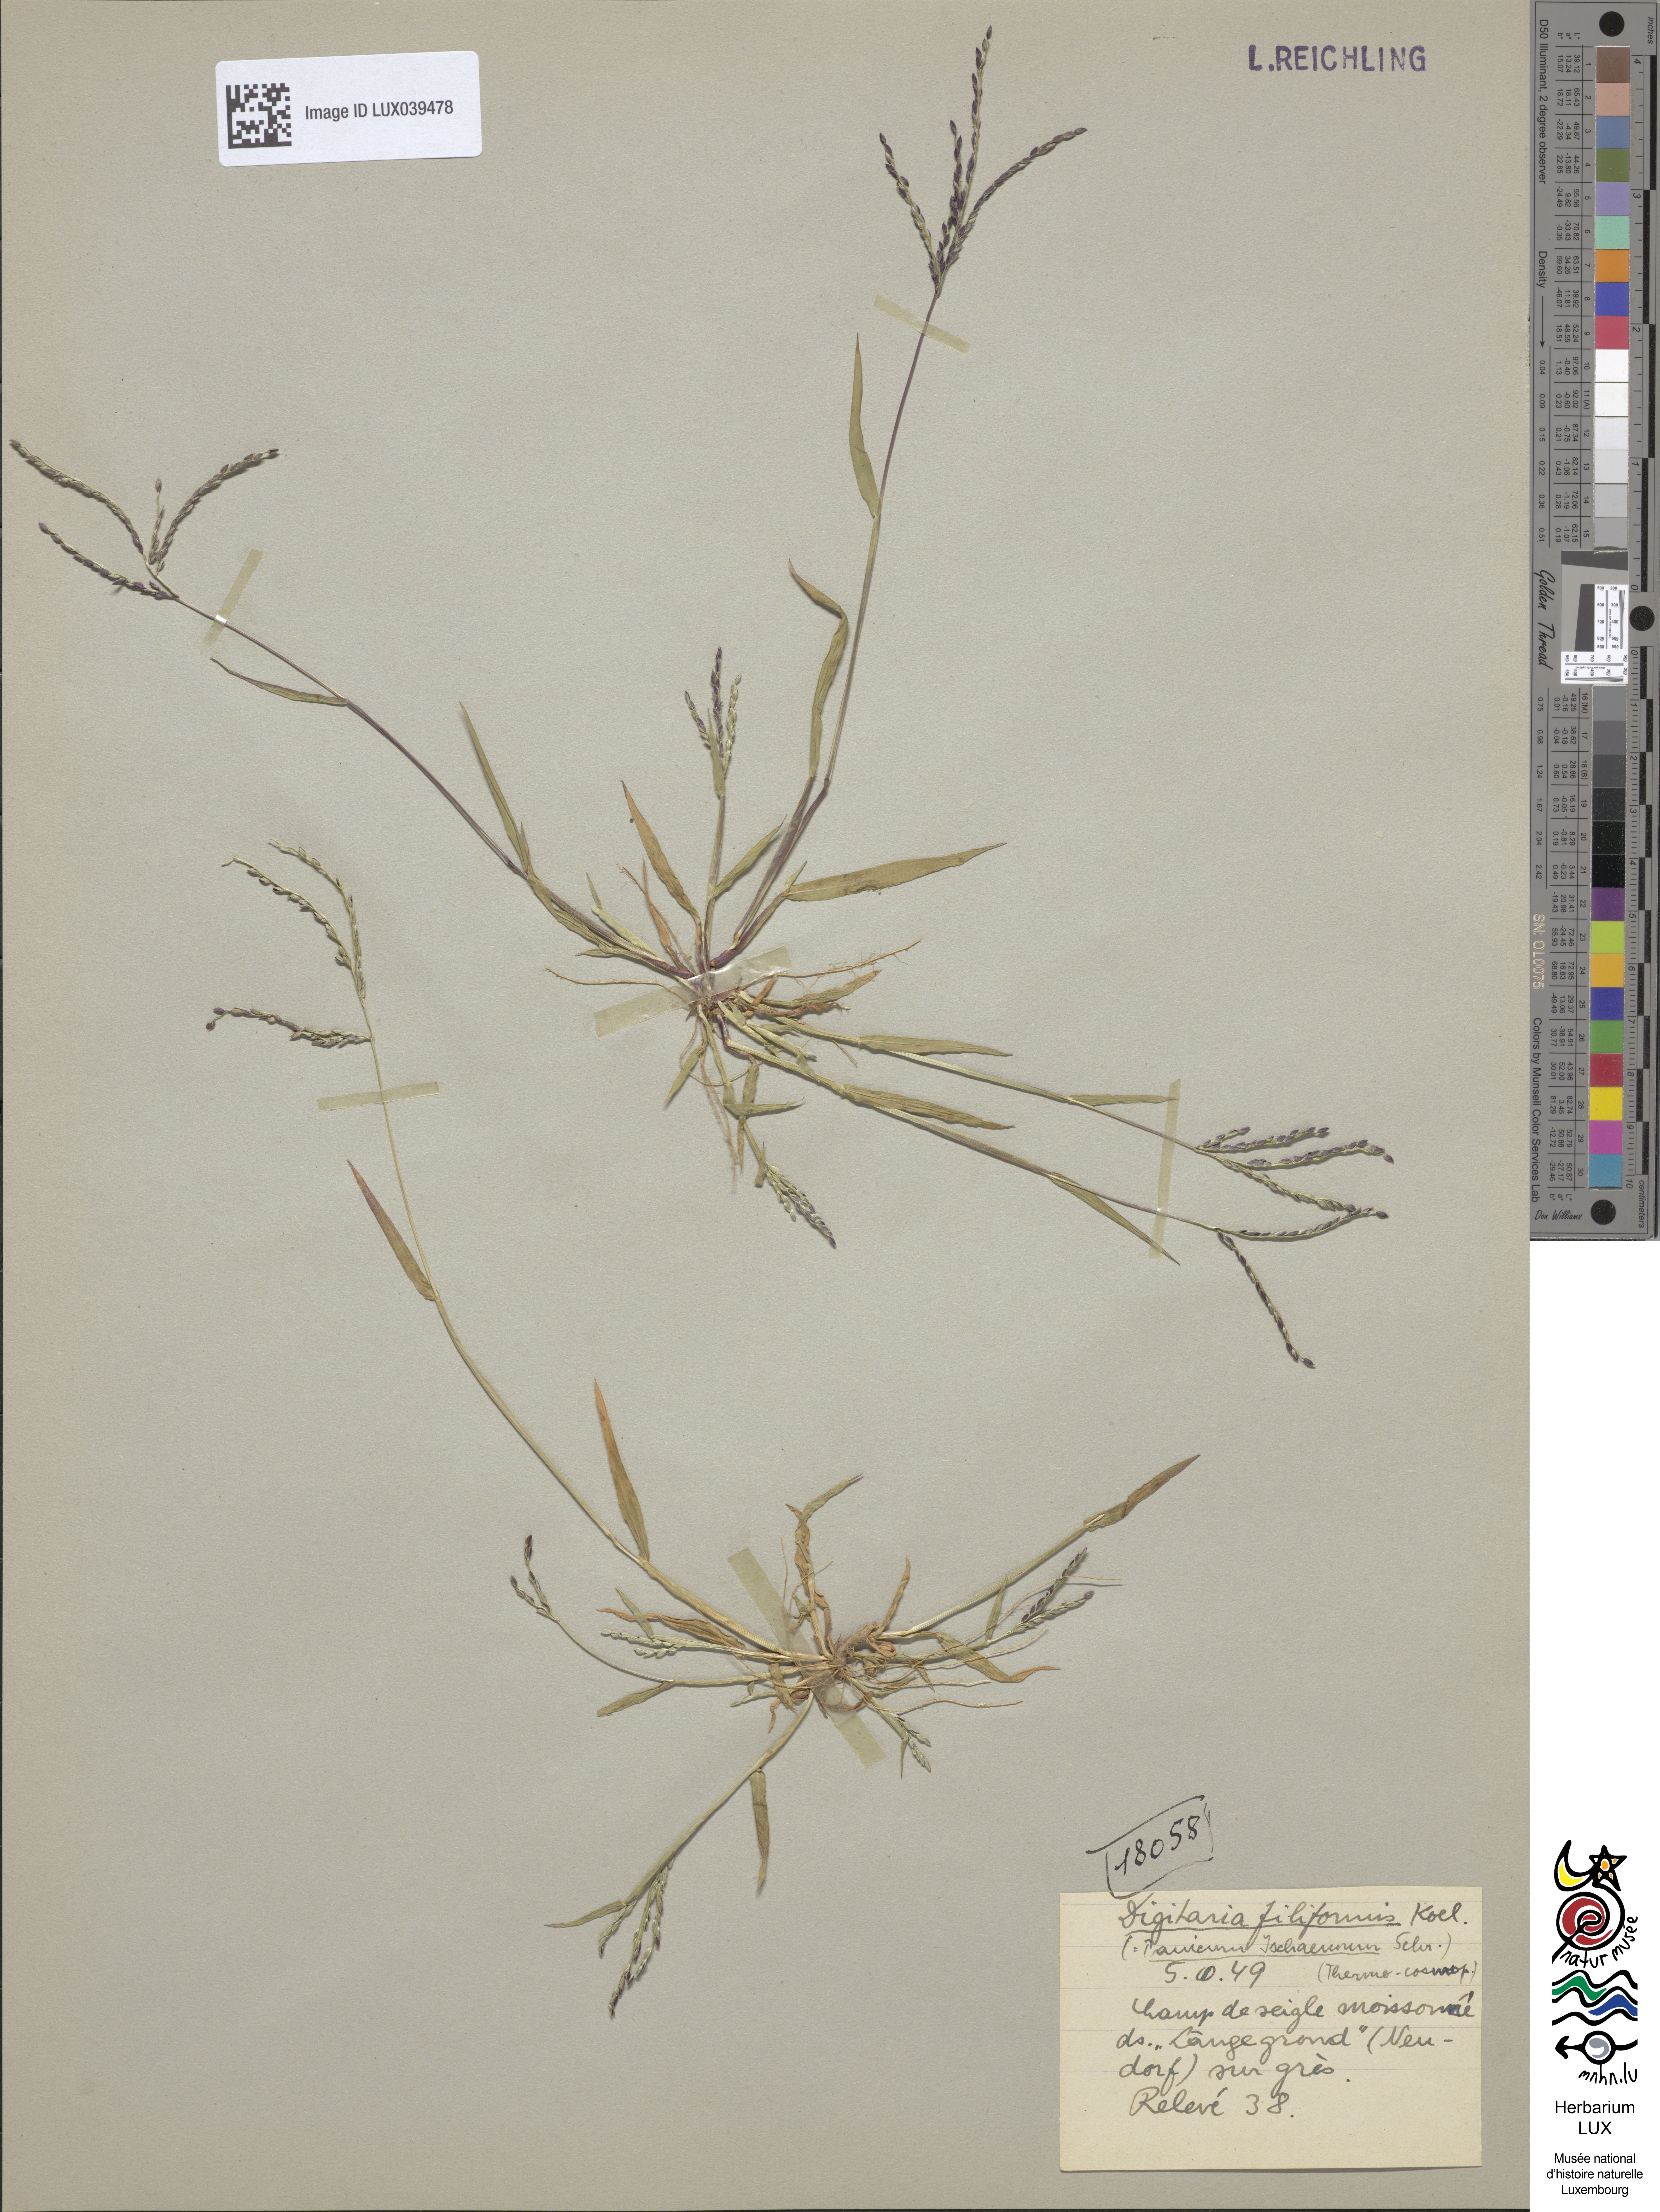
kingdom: Plantae
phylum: Tracheophyta
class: Liliopsida
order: Poales
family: Poaceae
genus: Digitaria
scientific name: Digitaria ischaemum
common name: Smooth crabgrass
